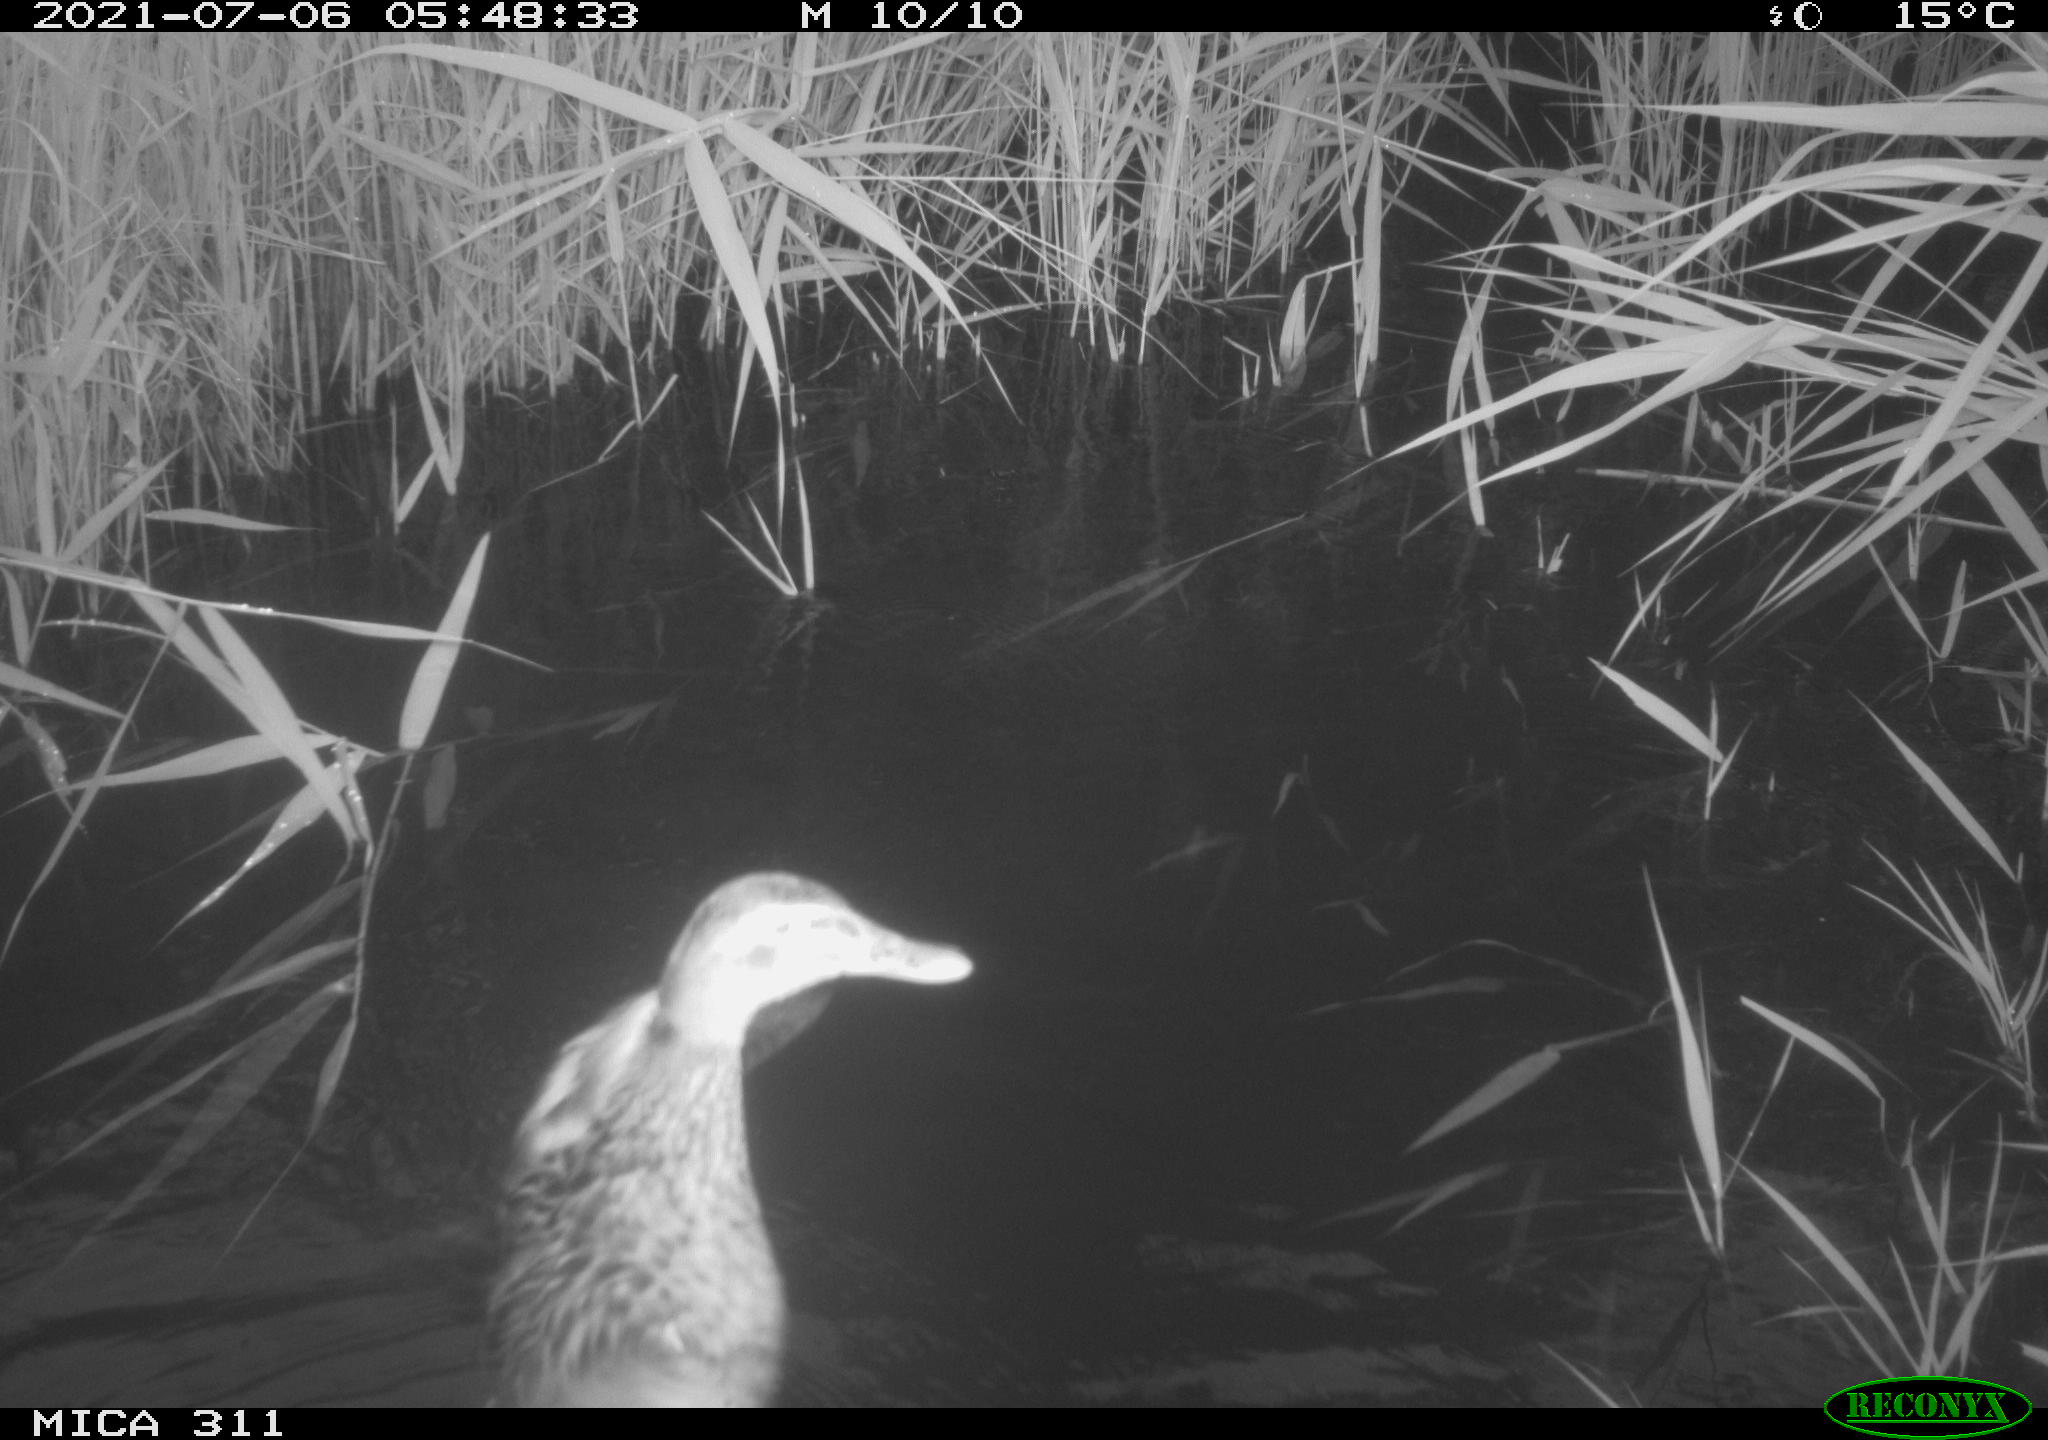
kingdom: Animalia
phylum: Chordata
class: Aves
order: Anseriformes
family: Anatidae
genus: Anas
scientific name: Anas
